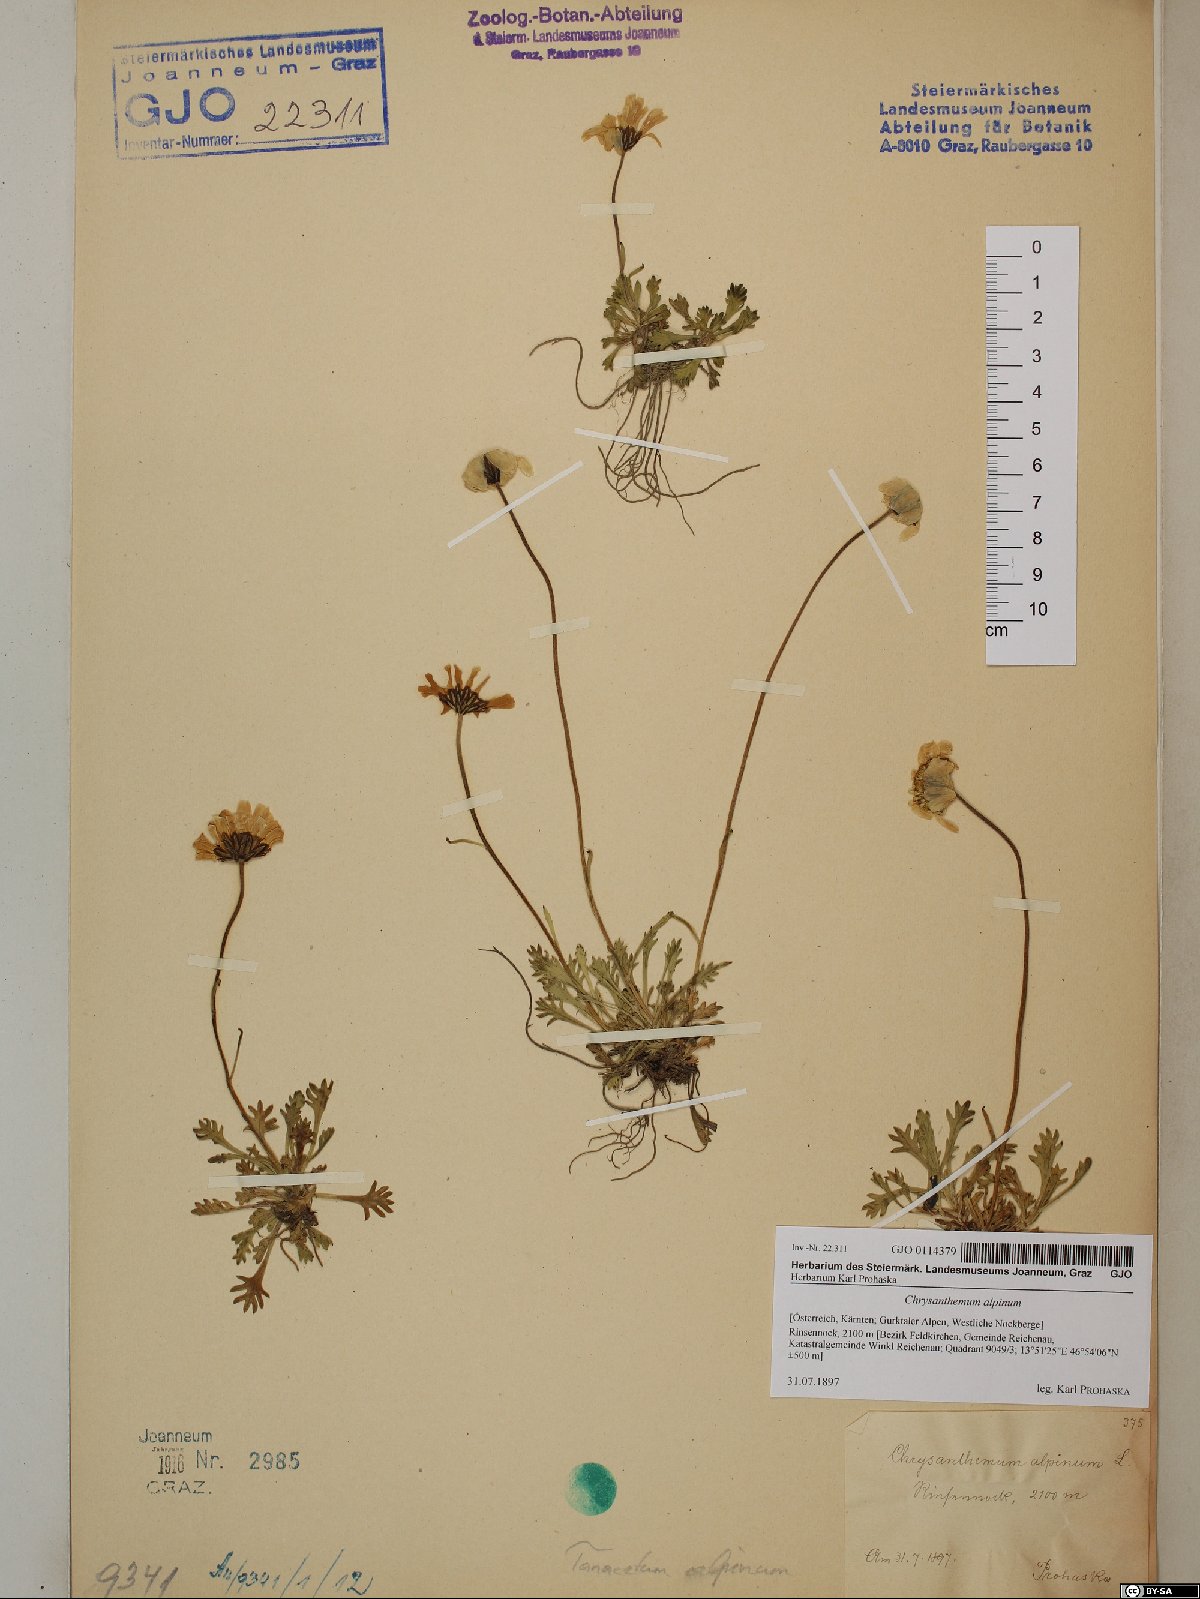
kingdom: Plantae
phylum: Tracheophyta
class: Magnoliopsida
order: Asterales
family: Asteraceae
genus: Leucanthemopsis
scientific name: Leucanthemopsis alpina
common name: Alpine moon daisy
